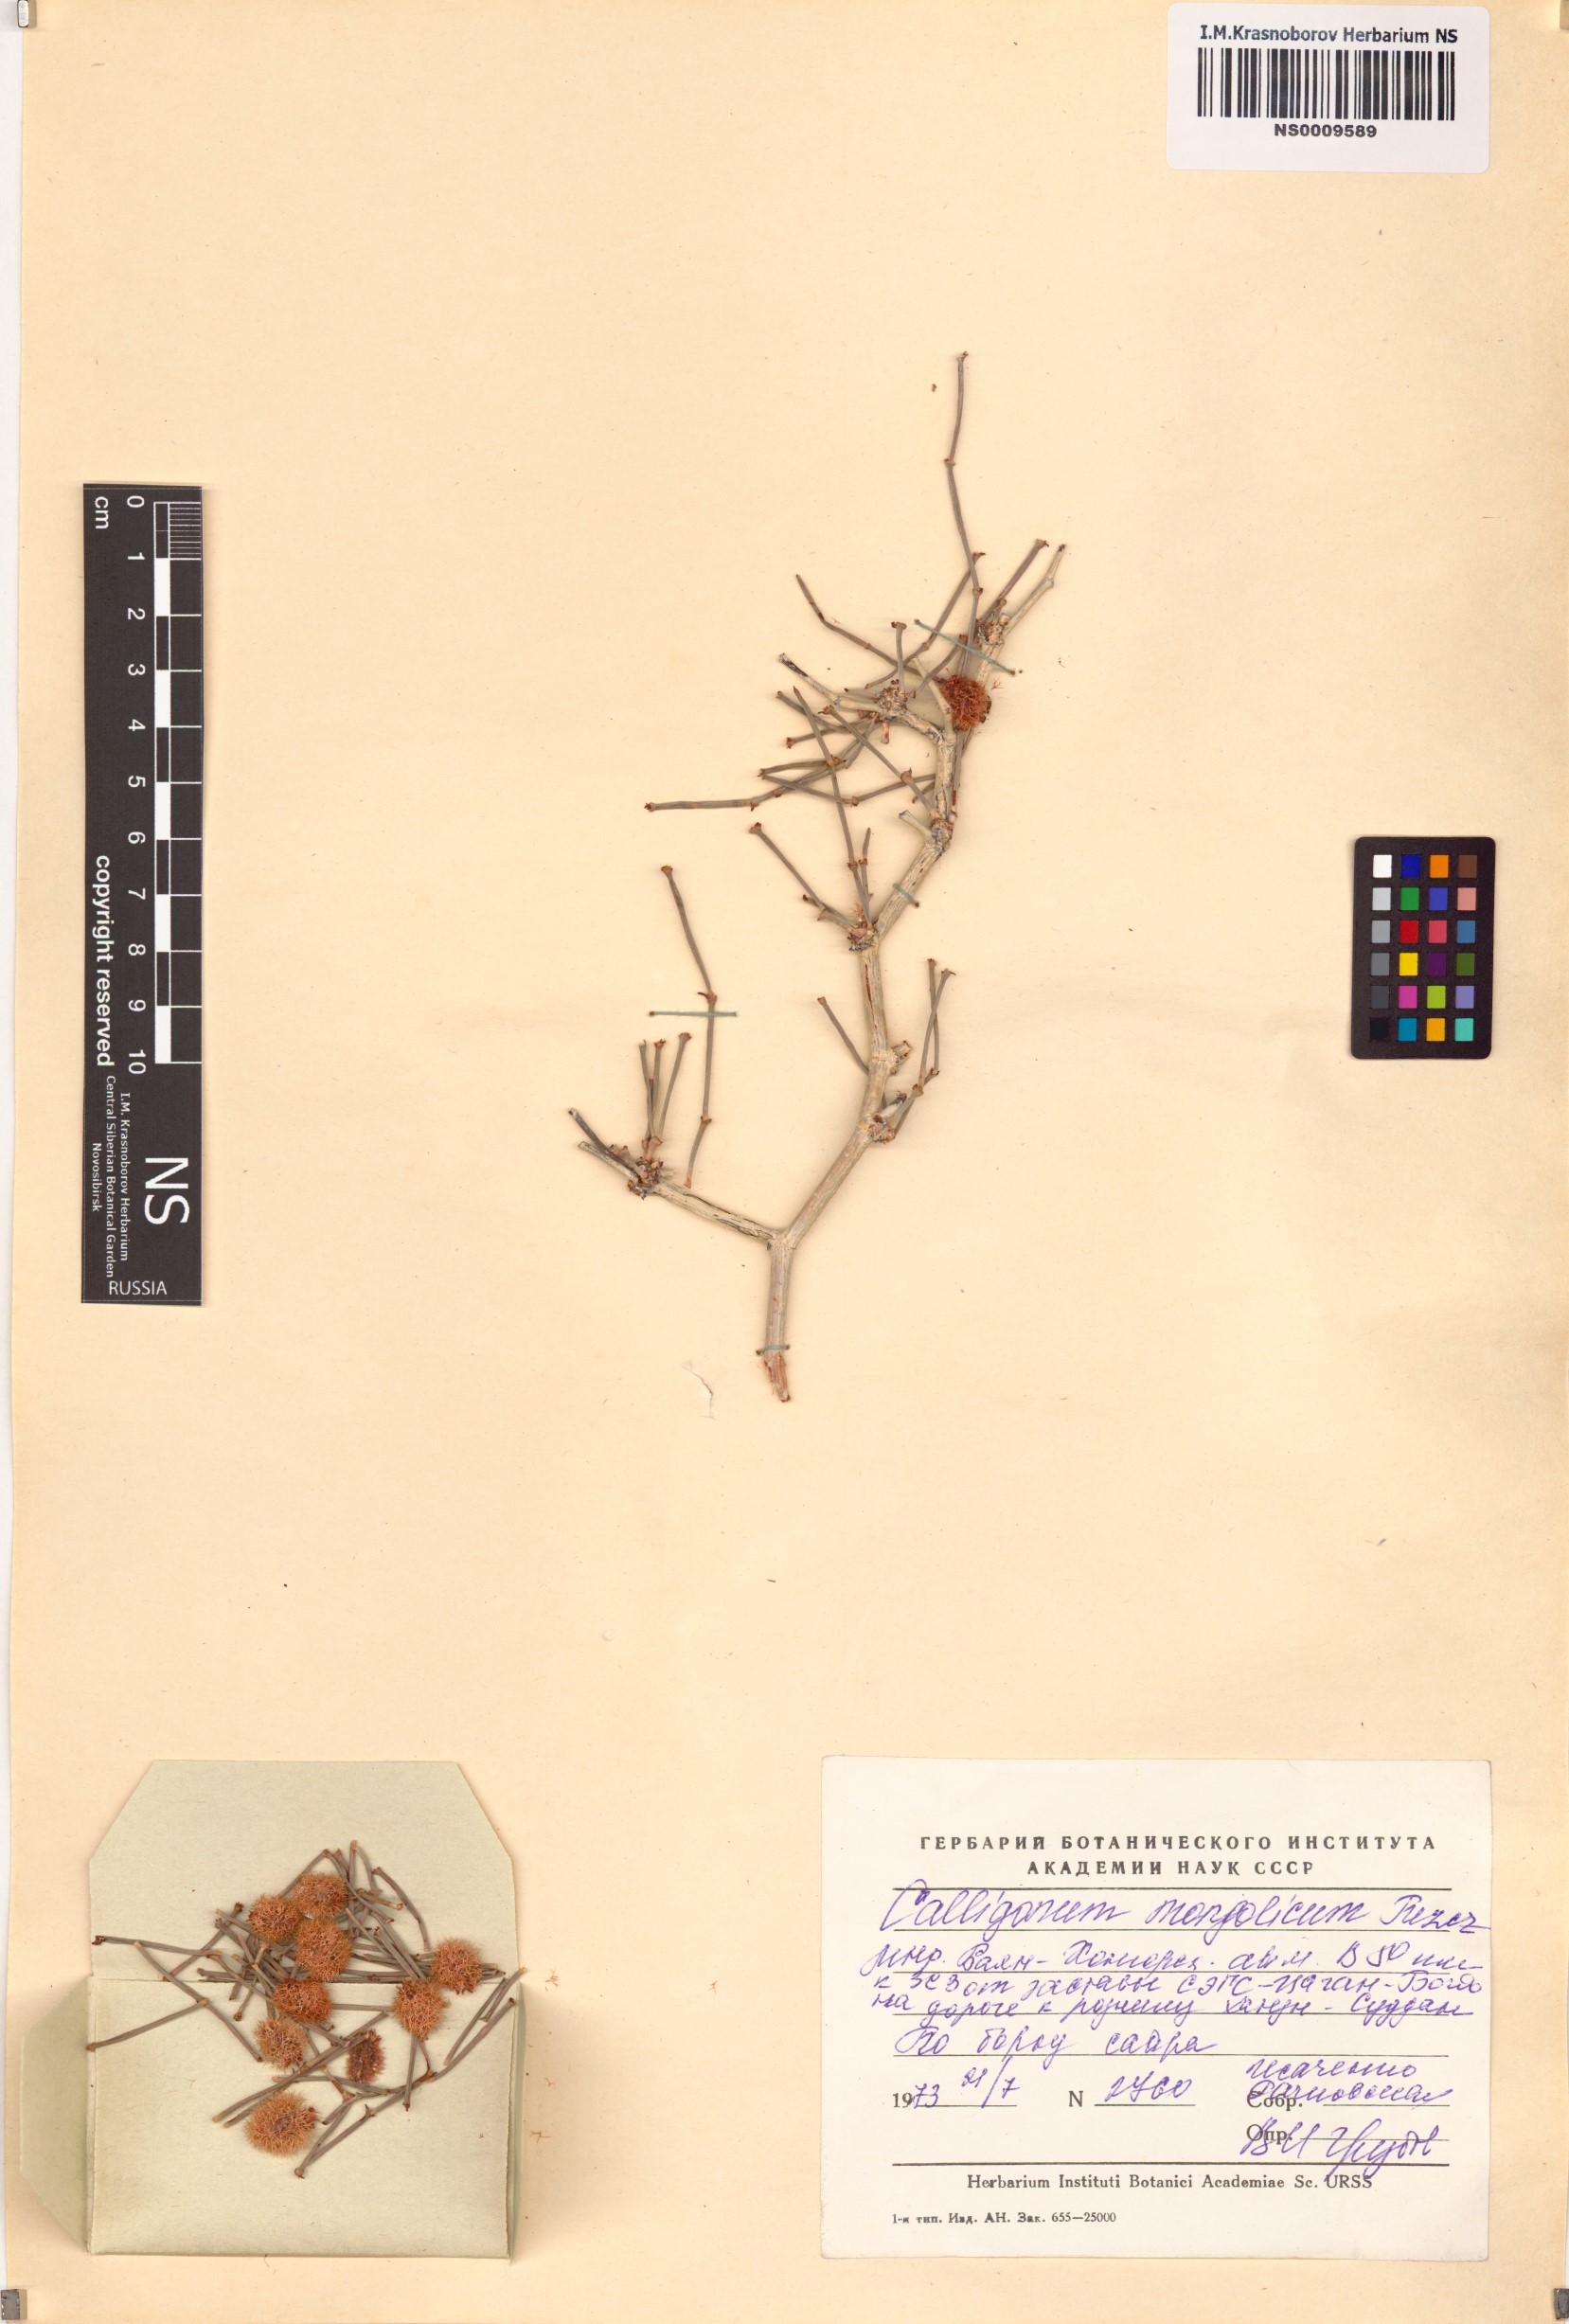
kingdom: Plantae
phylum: Tracheophyta
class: Magnoliopsida
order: Caryophyllales
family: Polygonaceae
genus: Calligonum
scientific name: Calligonum mongolicum
